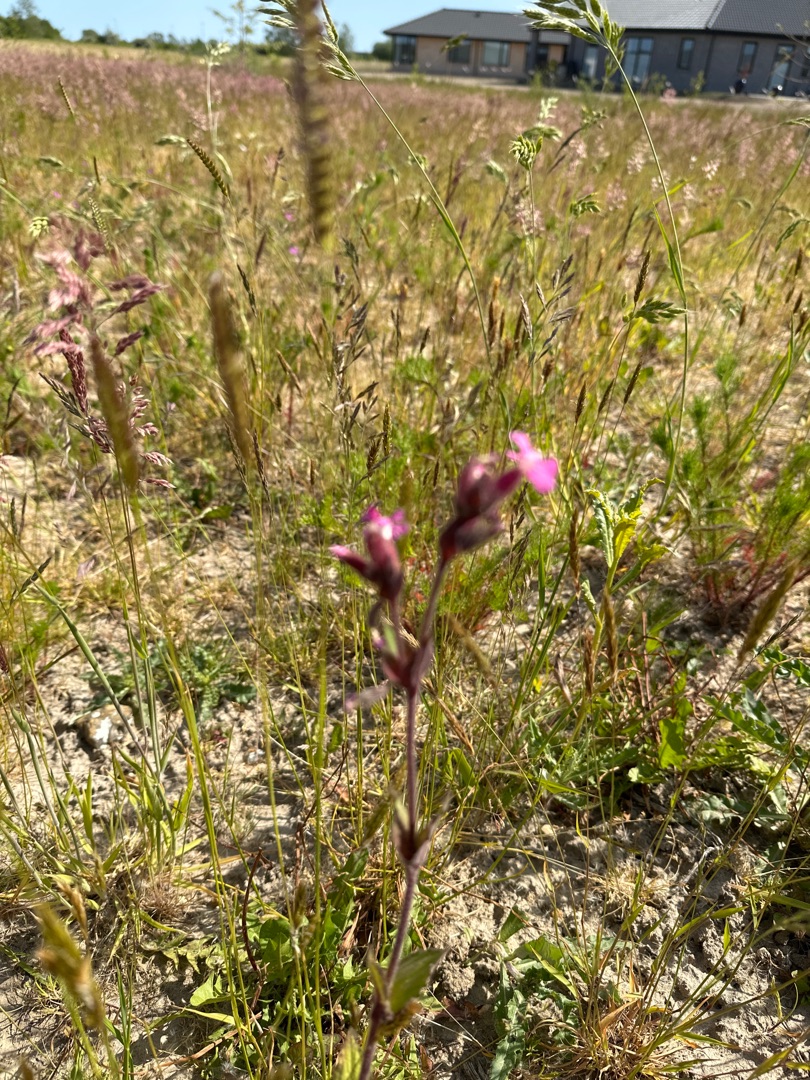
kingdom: Plantae
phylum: Tracheophyta
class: Magnoliopsida
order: Caryophyllales
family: Caryophyllaceae
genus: Silene
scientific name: Silene dioica
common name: Dagpragtstjerne
